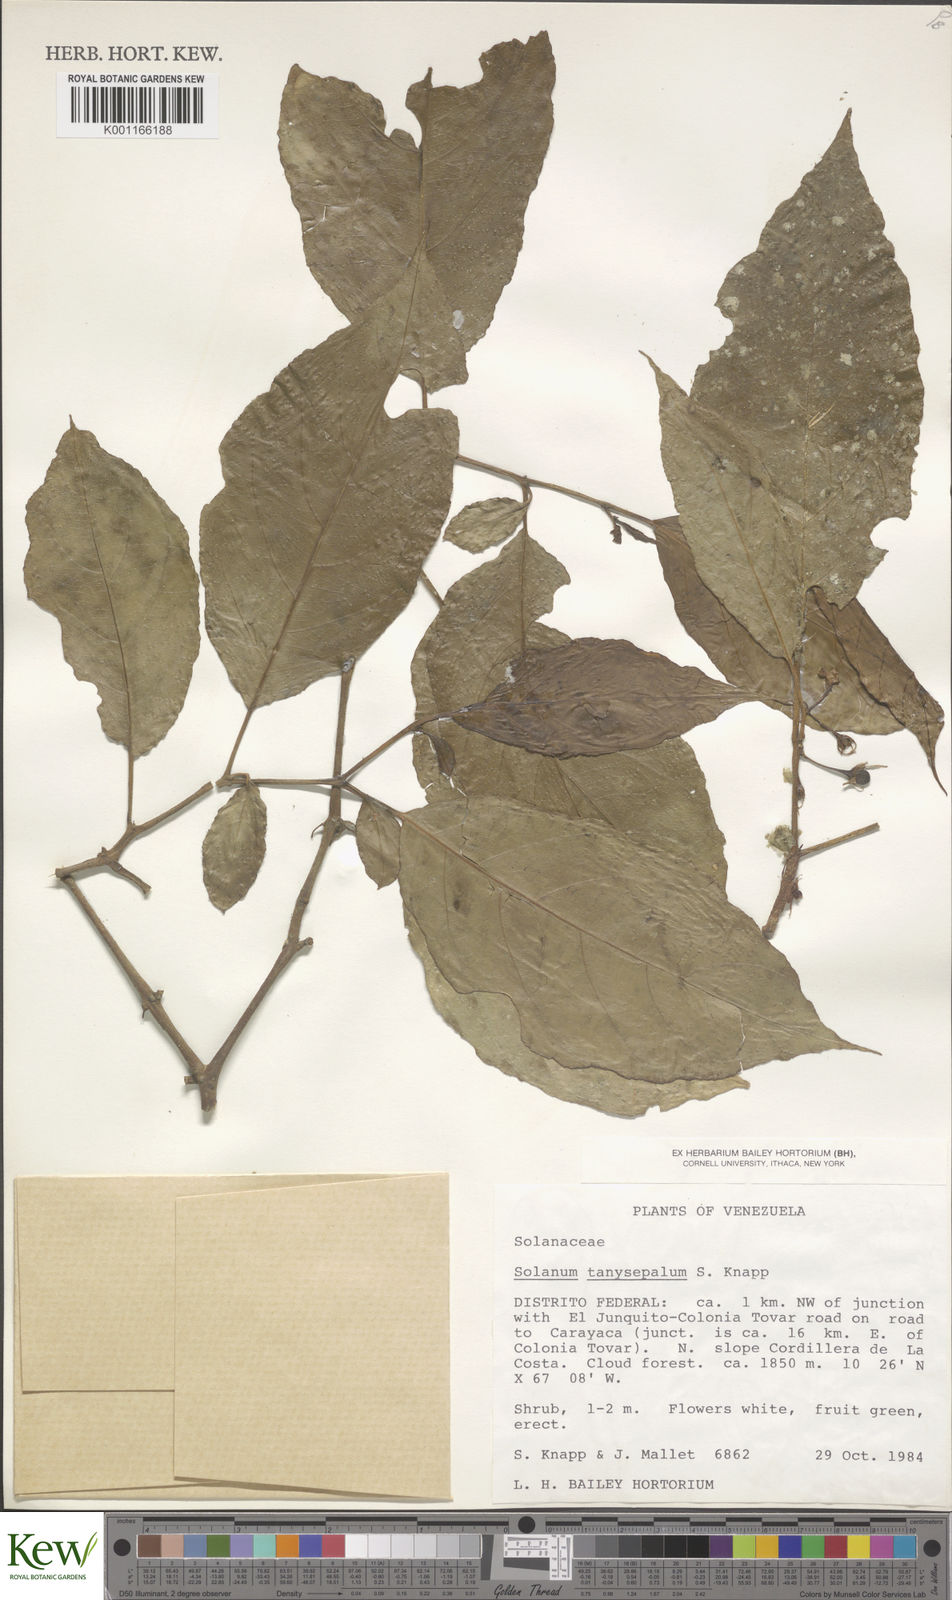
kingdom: Plantae
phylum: Tracheophyta
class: Magnoliopsida
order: Solanales
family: Solanaceae
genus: Solanum
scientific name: Solanum tanysepalum
